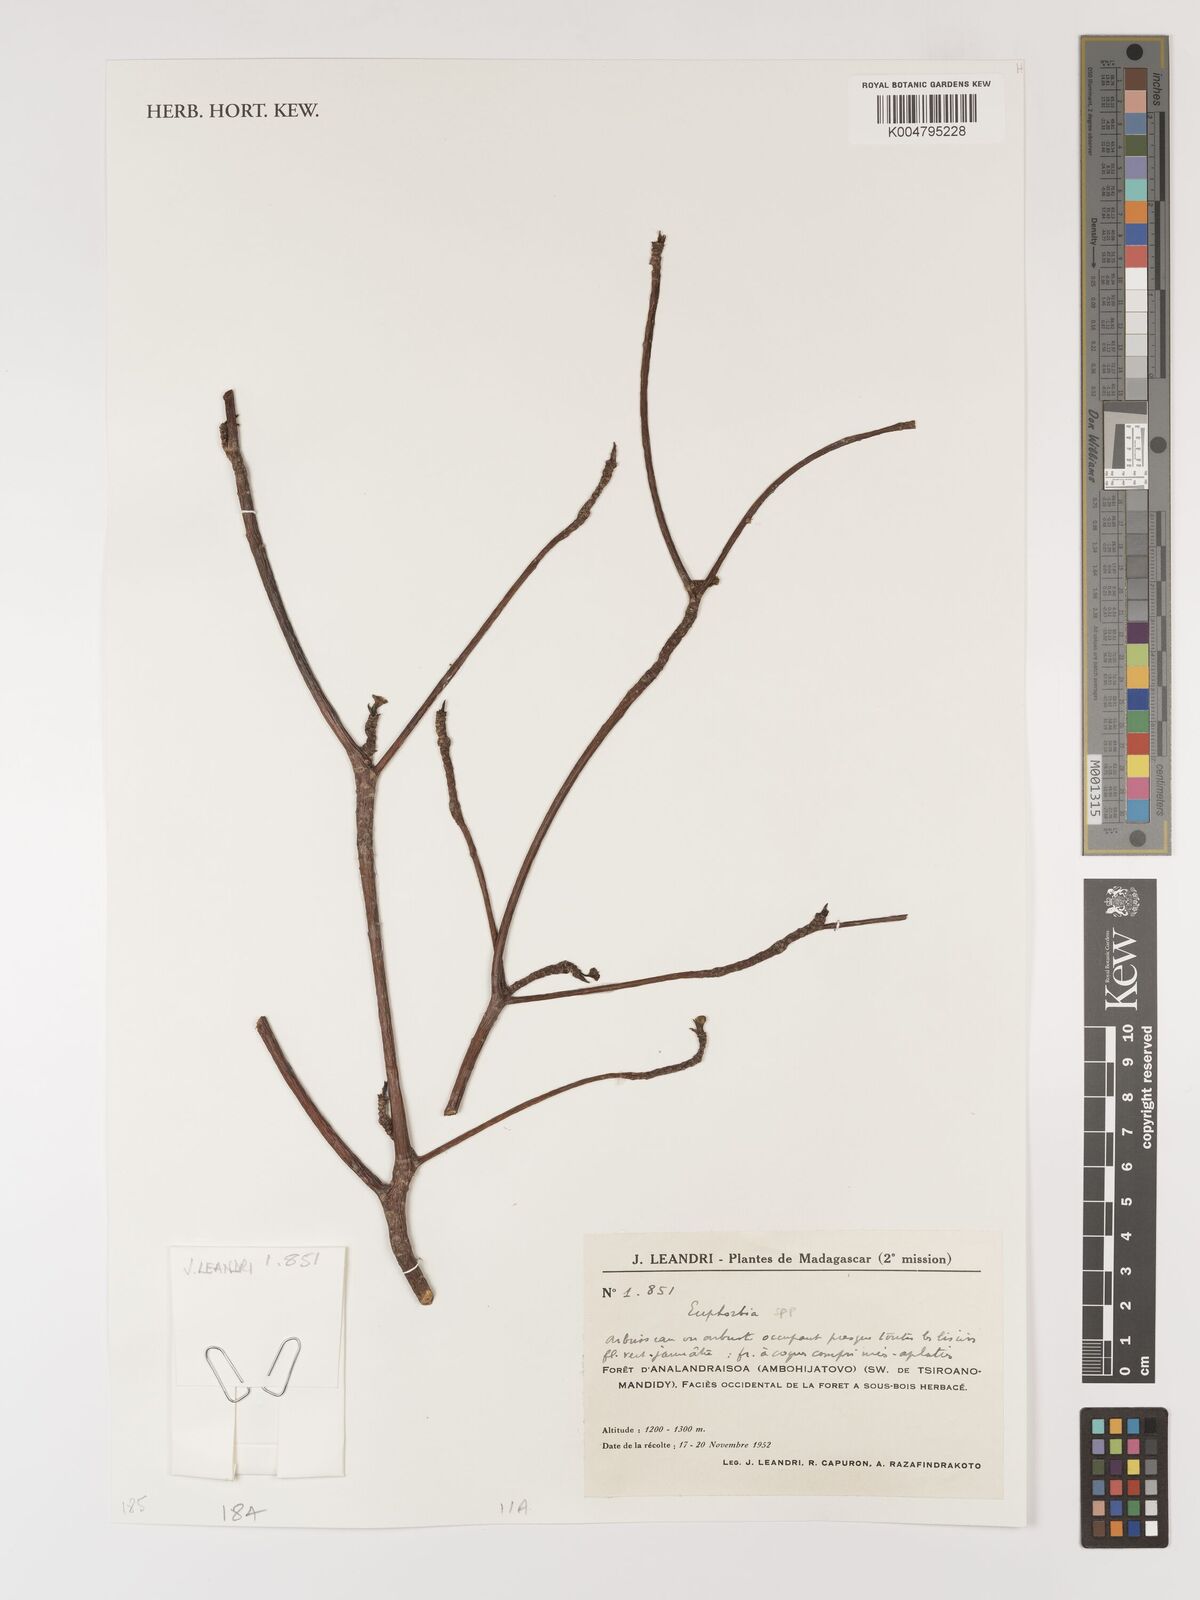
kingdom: Plantae
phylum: Tracheophyta
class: Magnoliopsida
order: Malpighiales
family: Euphorbiaceae
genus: Euphorbia
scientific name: Euphorbia
